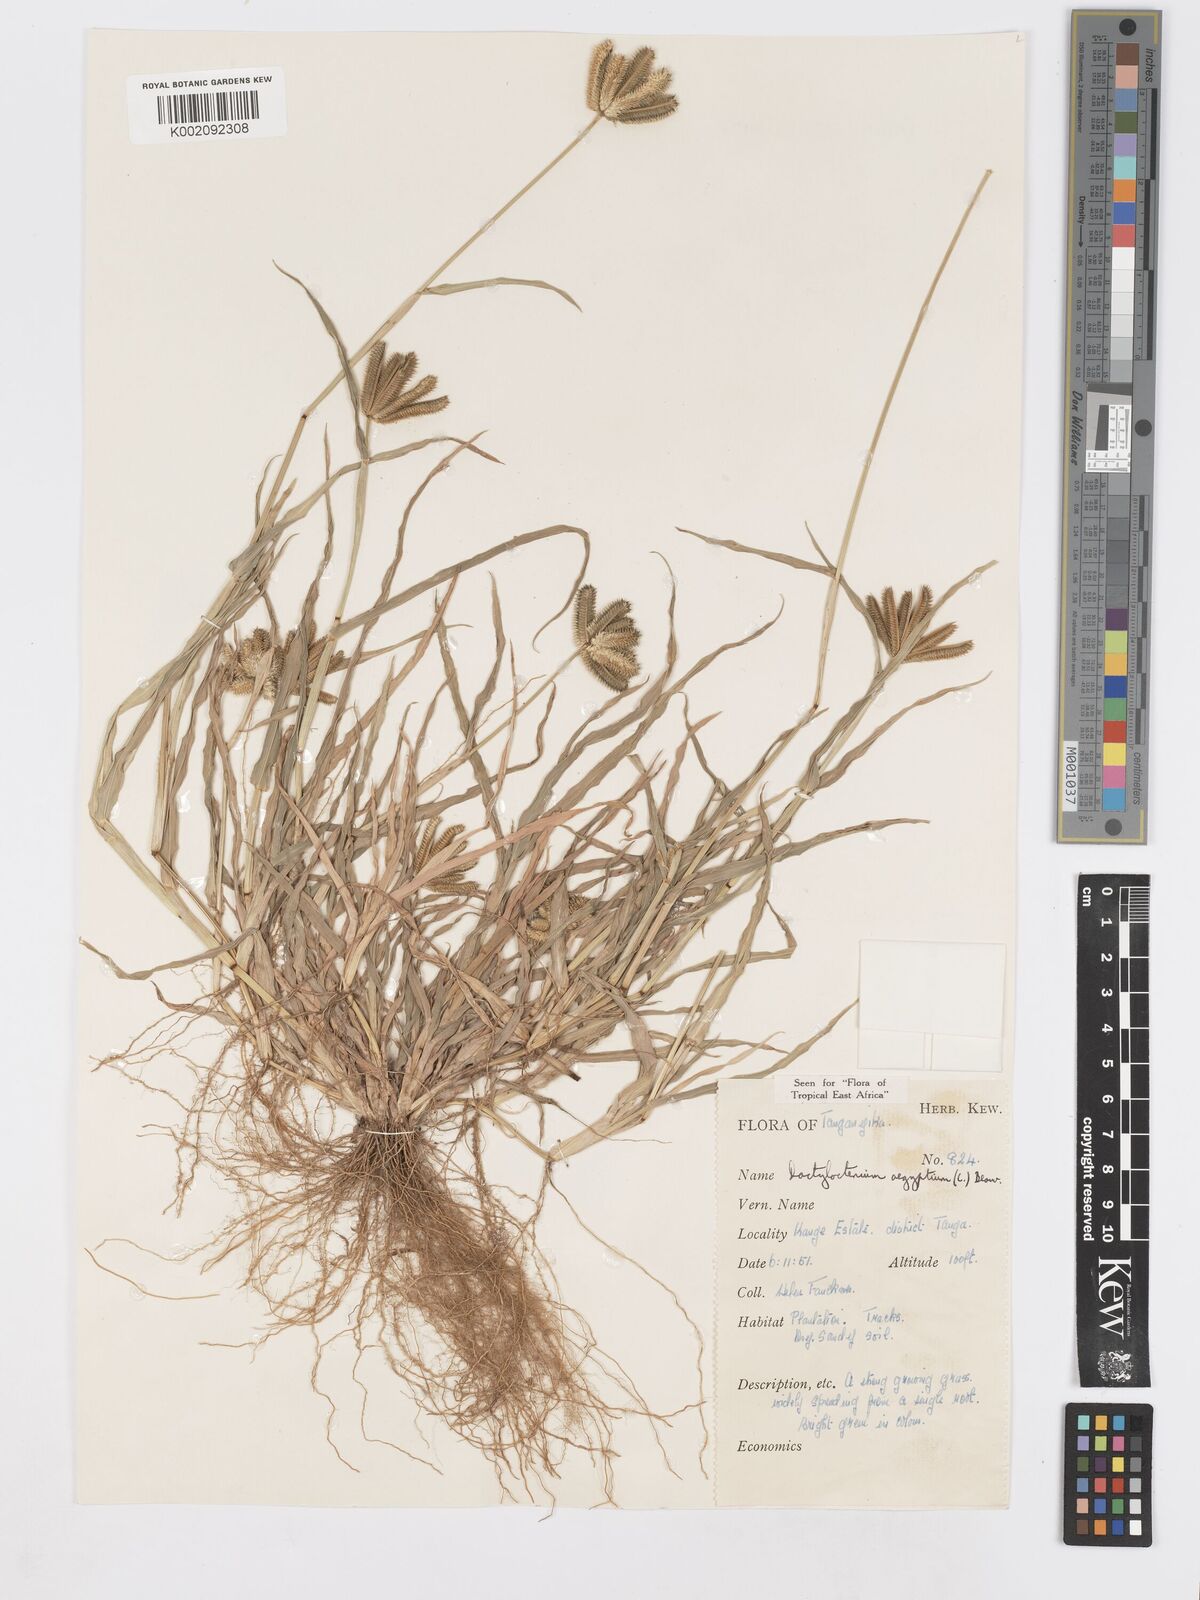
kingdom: Plantae
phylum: Tracheophyta
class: Liliopsida
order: Poales
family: Poaceae
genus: Dactyloctenium
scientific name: Dactyloctenium aegyptium
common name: Egyptian grass
